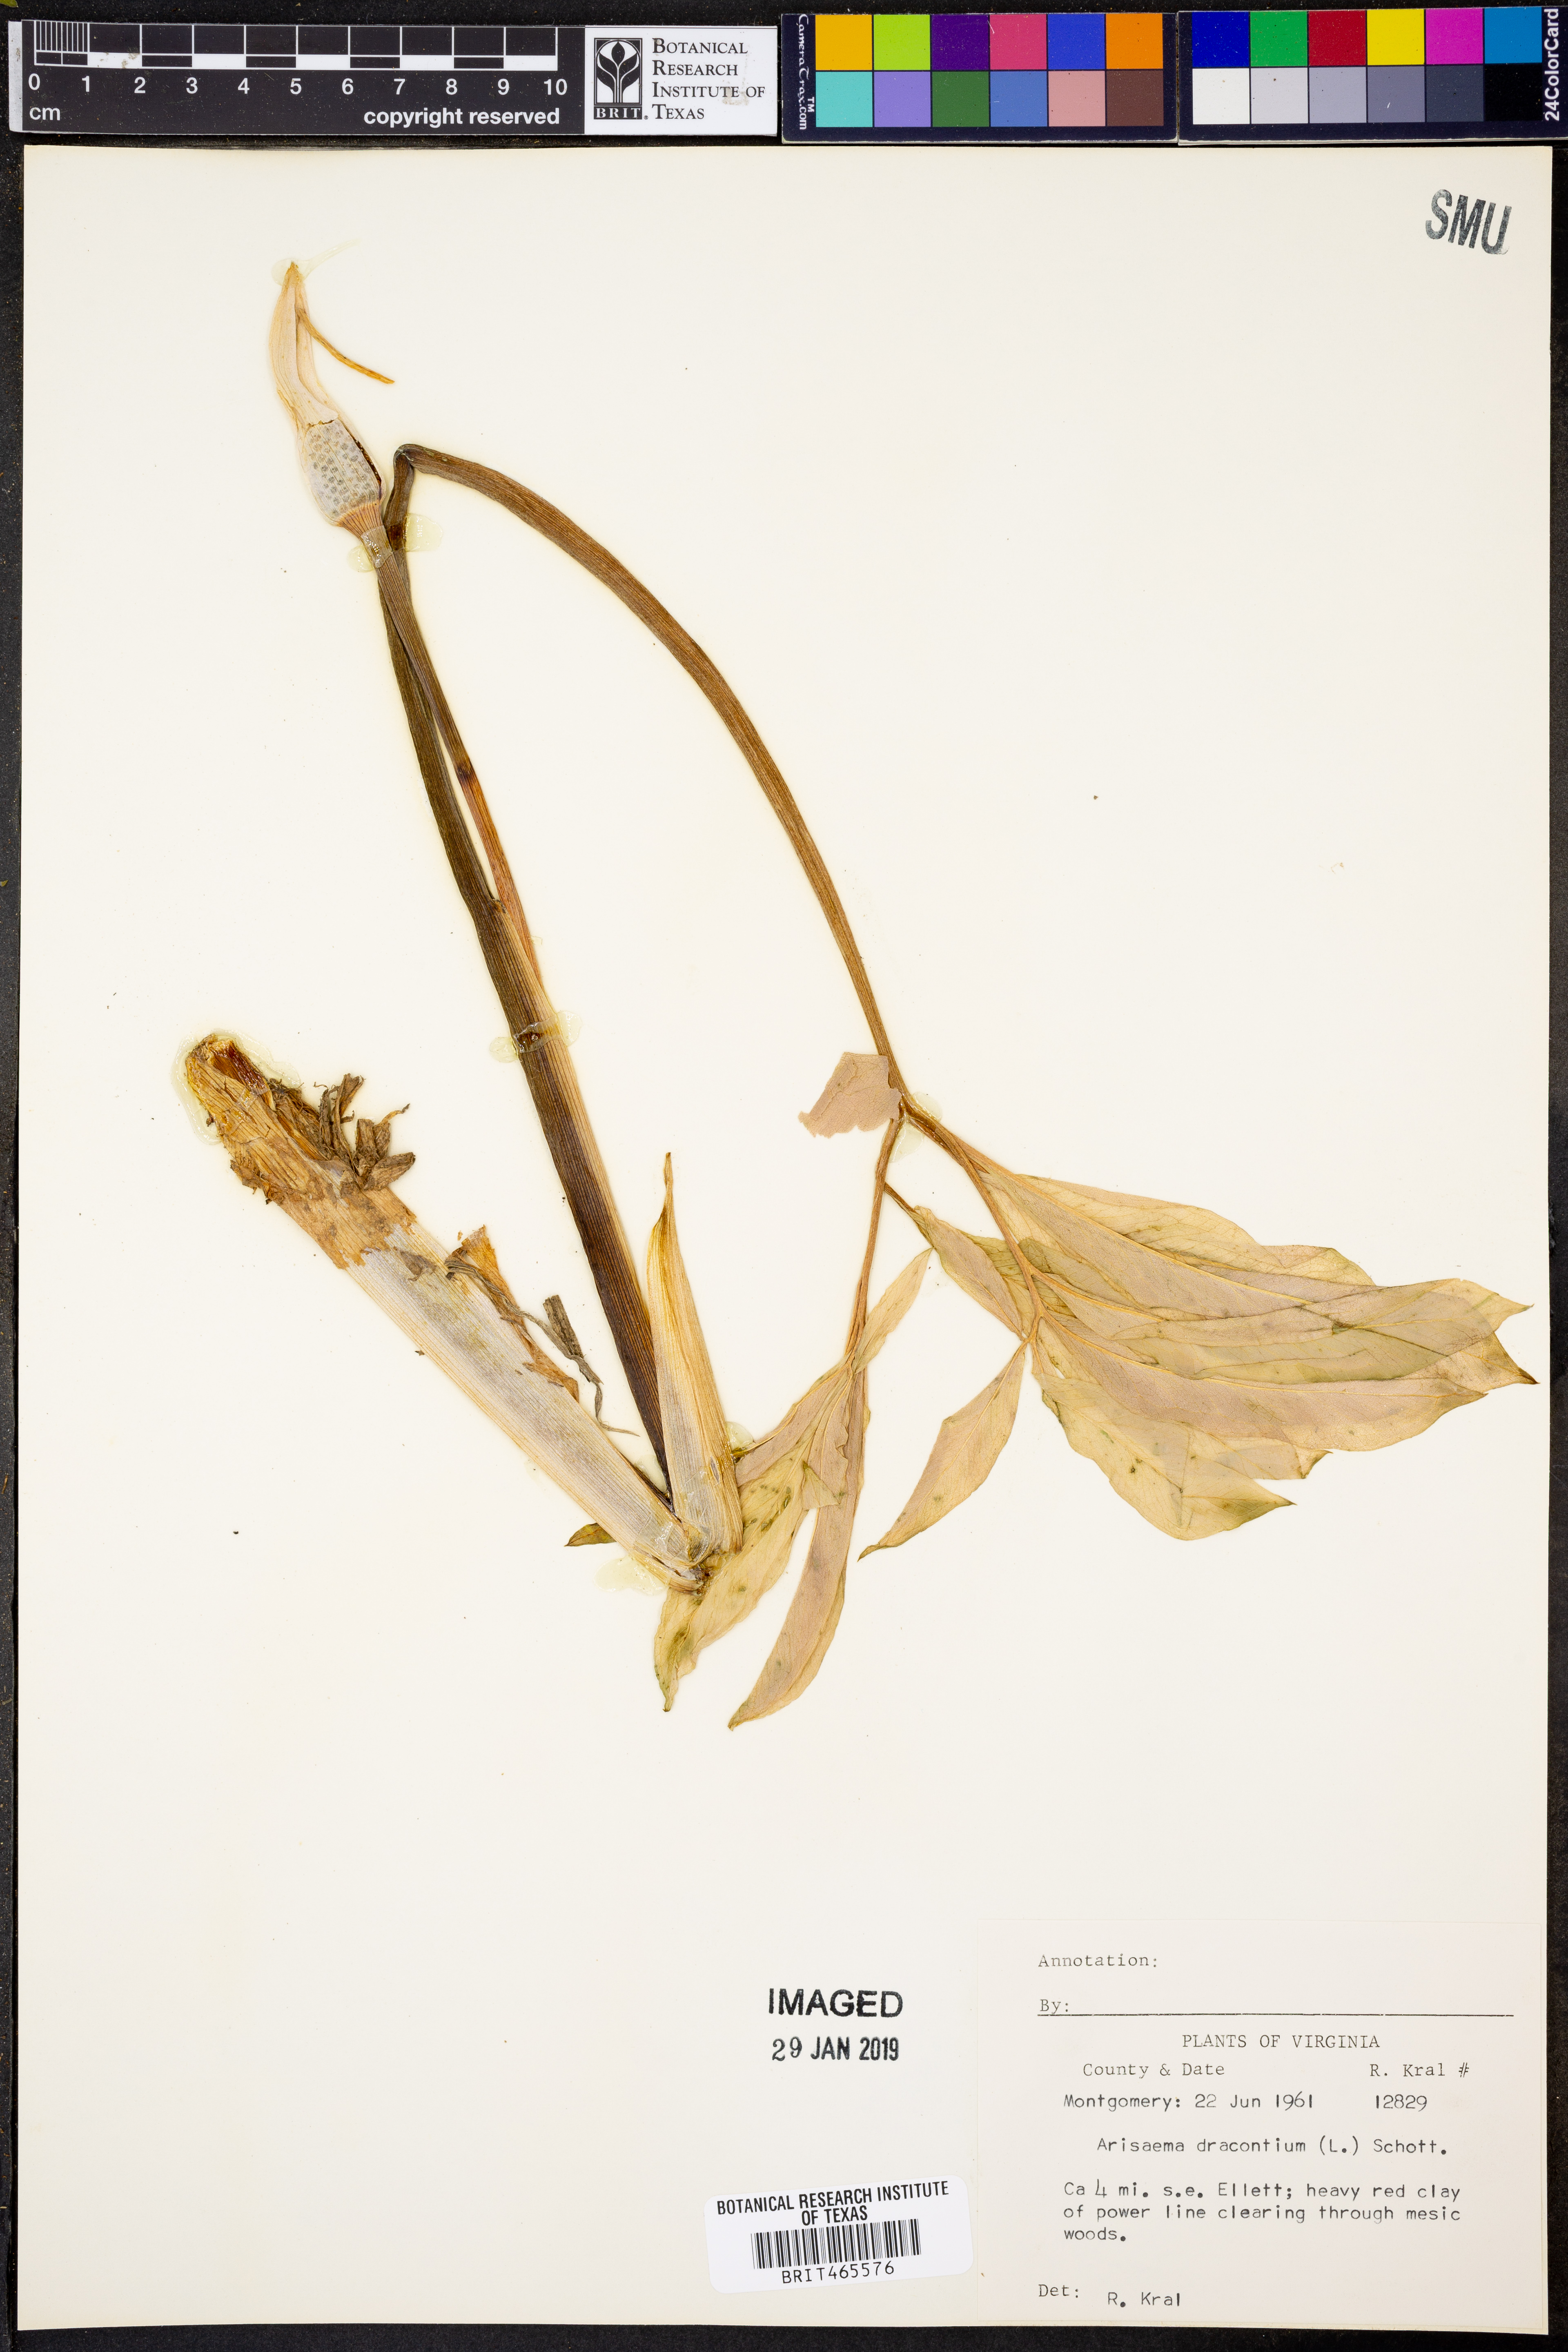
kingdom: Plantae
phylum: Tracheophyta
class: Liliopsida
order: Alismatales
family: Araceae
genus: Arisaema
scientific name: Arisaema dracontium
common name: Dragon-arum
